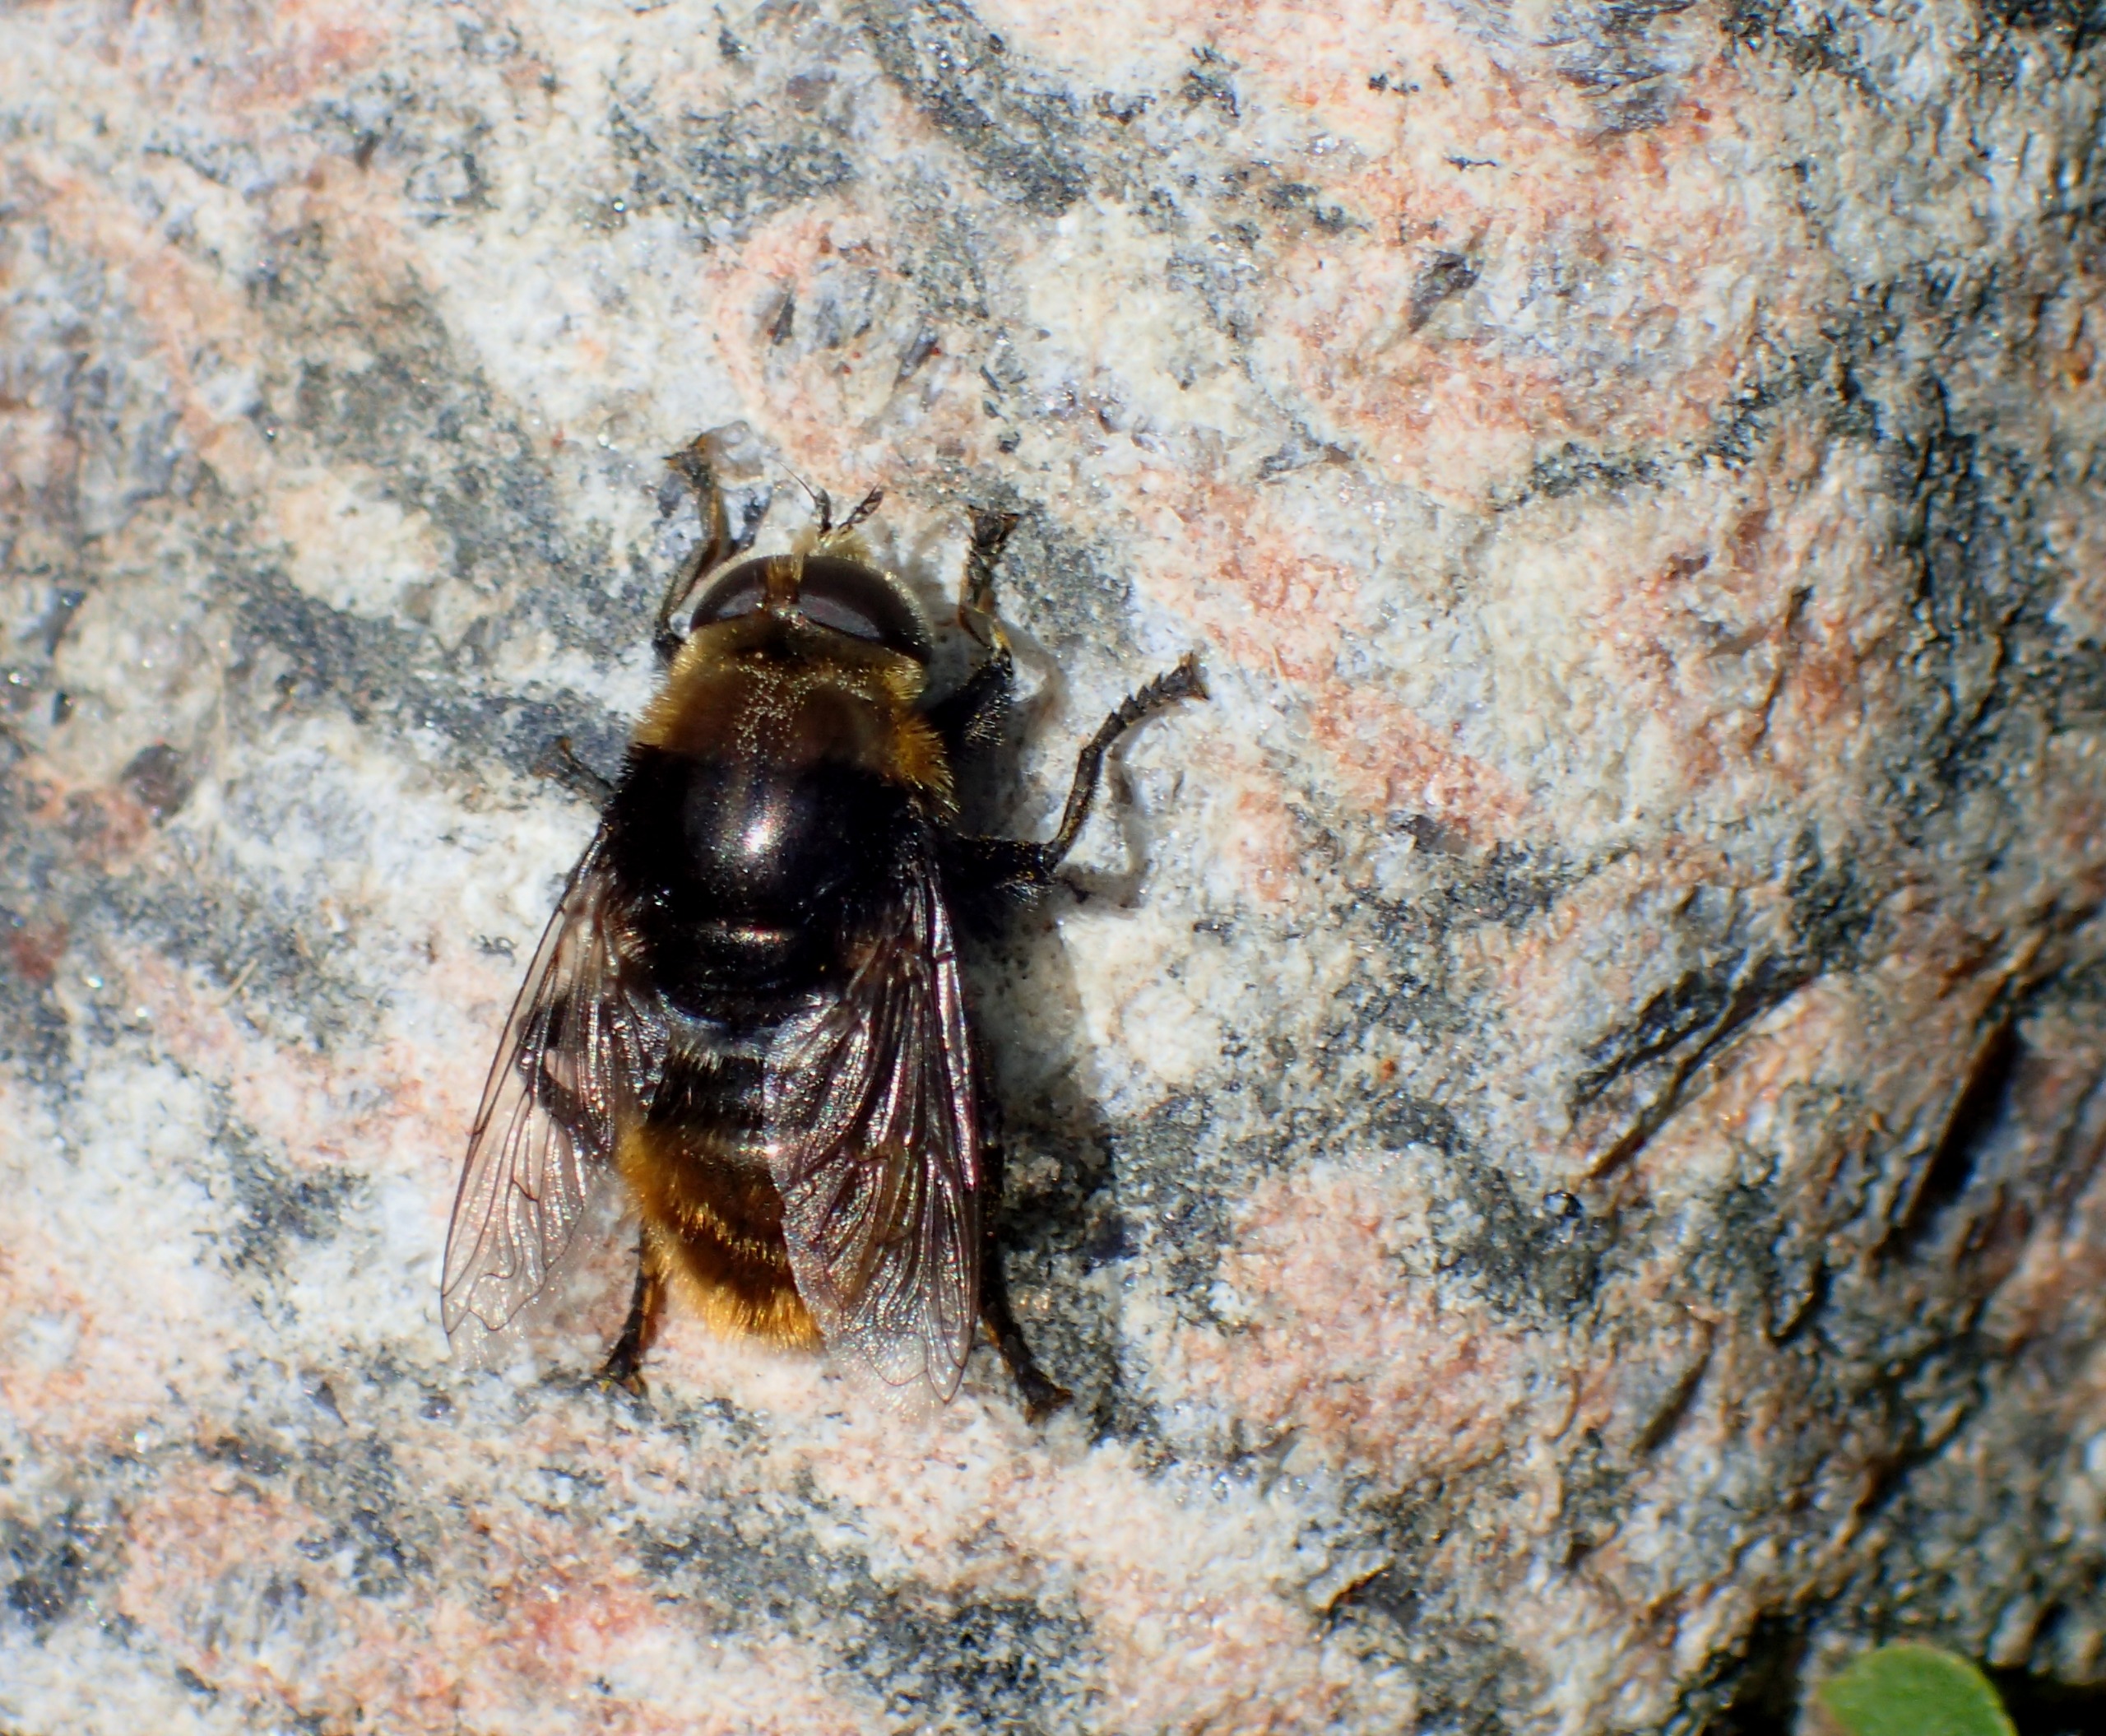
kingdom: Animalia
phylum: Arthropoda
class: Insecta
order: Diptera
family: Syrphidae
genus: Merodon
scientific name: Merodon equestris
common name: Stor narcisflue
